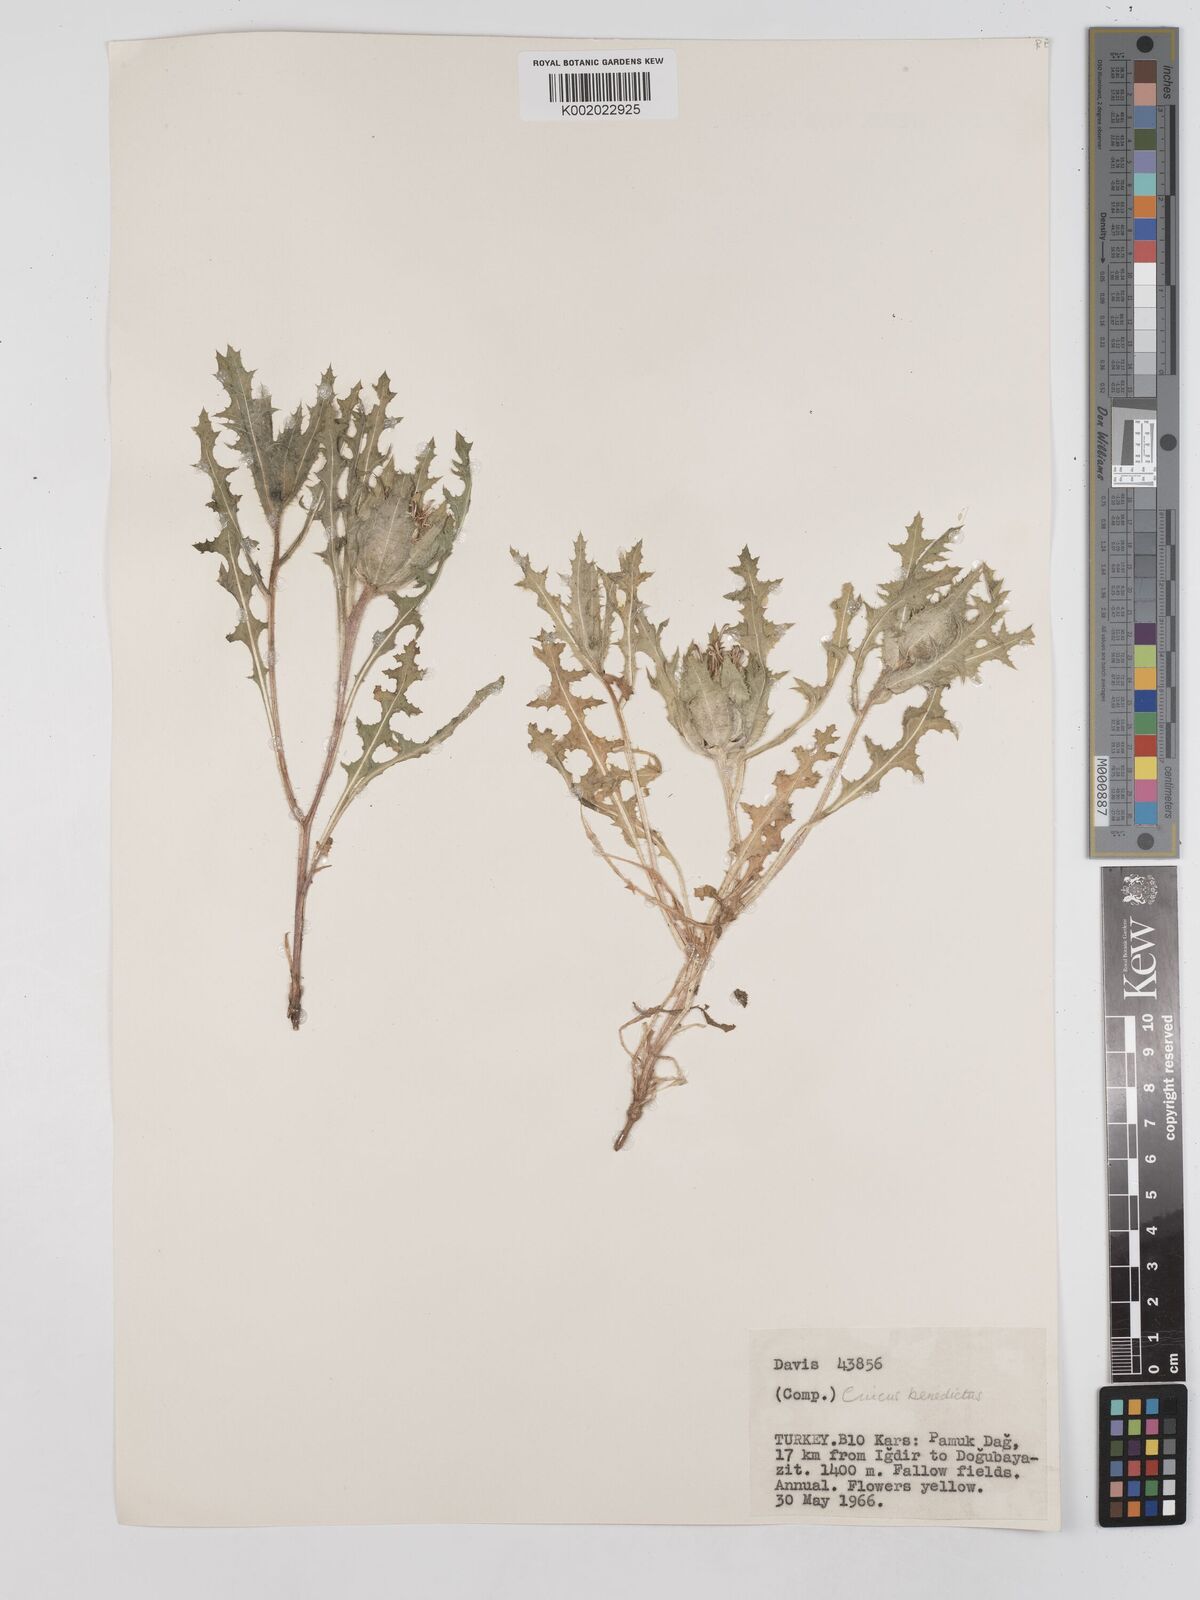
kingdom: Plantae
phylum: Tracheophyta
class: Magnoliopsida
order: Asterales
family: Asteraceae
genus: Centaurea
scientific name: Centaurea benedicta
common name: Blessed thistle
